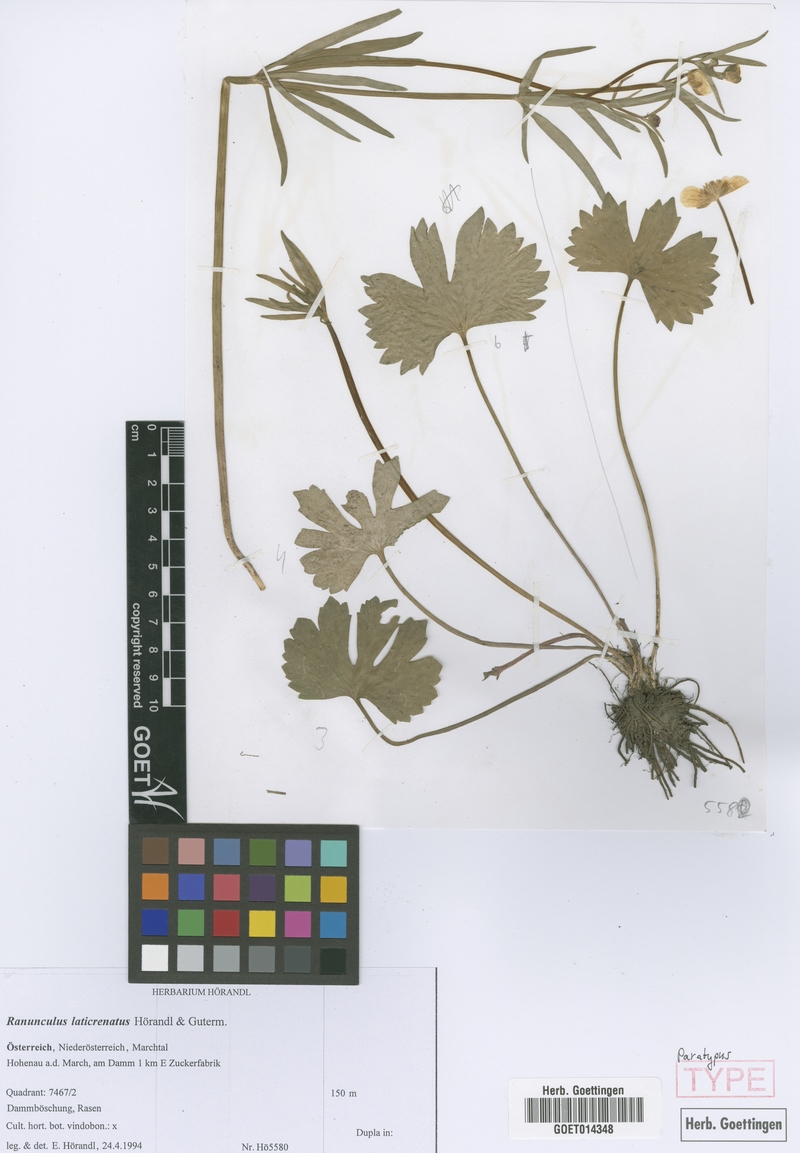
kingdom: Plantae
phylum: Tracheophyta
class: Magnoliopsida
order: Ranunculales
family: Ranunculaceae
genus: Ranunculus
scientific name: Ranunculus laticrenatus
